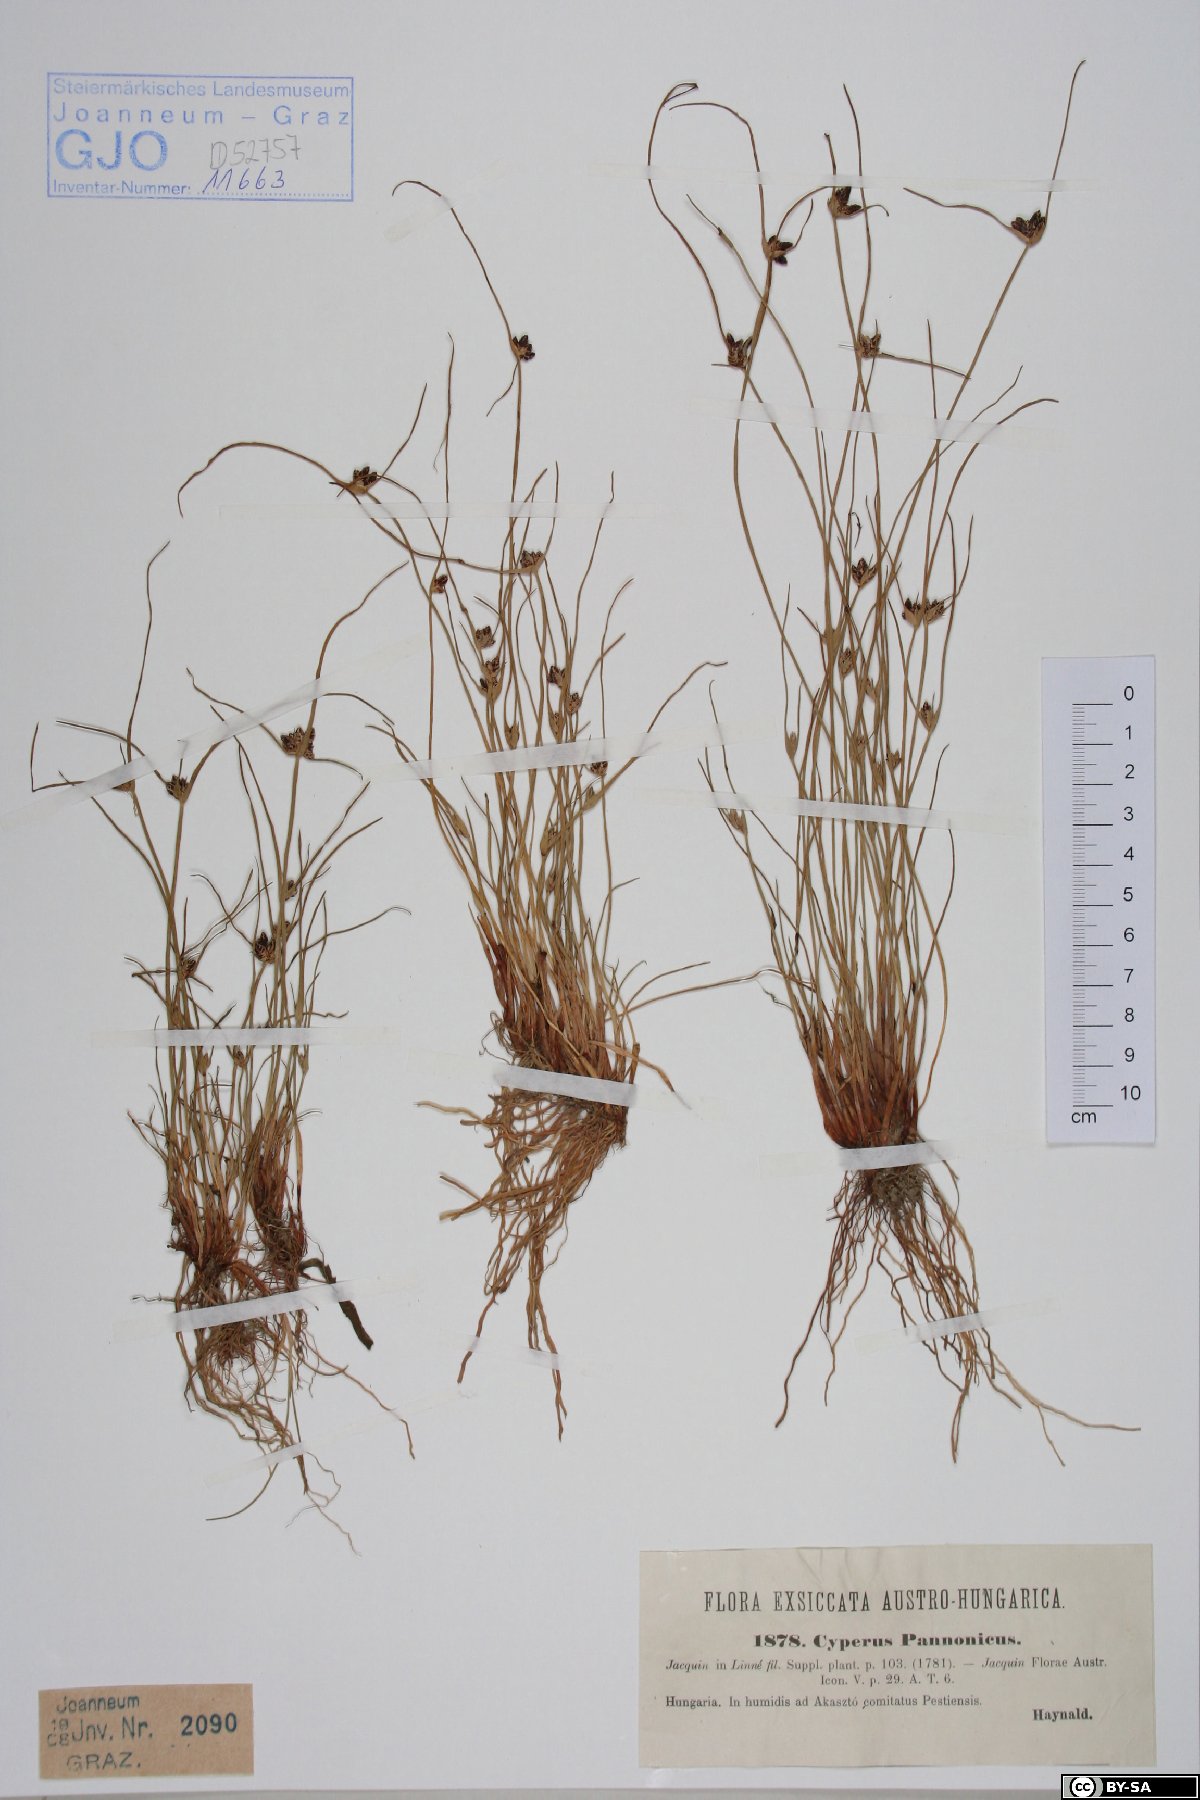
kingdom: Plantae
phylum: Tracheophyta
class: Liliopsida
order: Poales
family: Cyperaceae
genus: Cyperus
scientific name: Cyperus pannonicus
